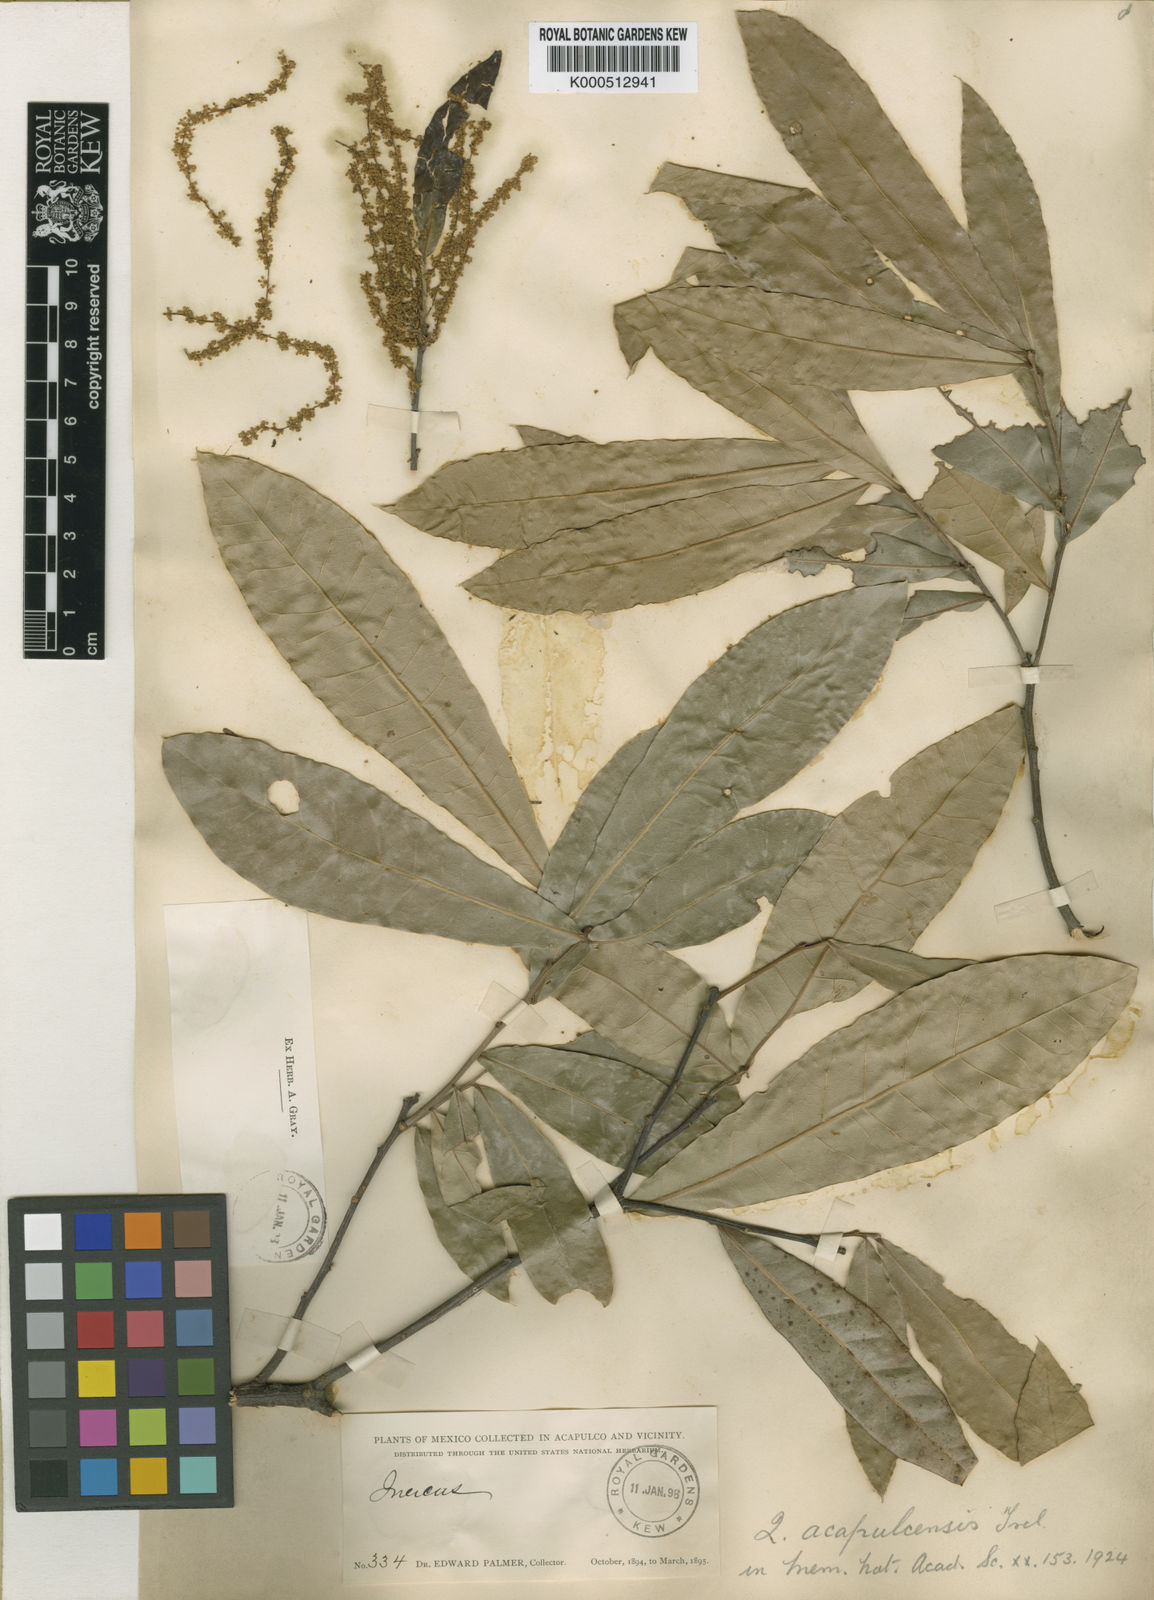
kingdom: Plantae
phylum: Tracheophyta
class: Magnoliopsida
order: Fagales
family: Fagaceae
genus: Quercus
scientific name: Quercus salicifolia
